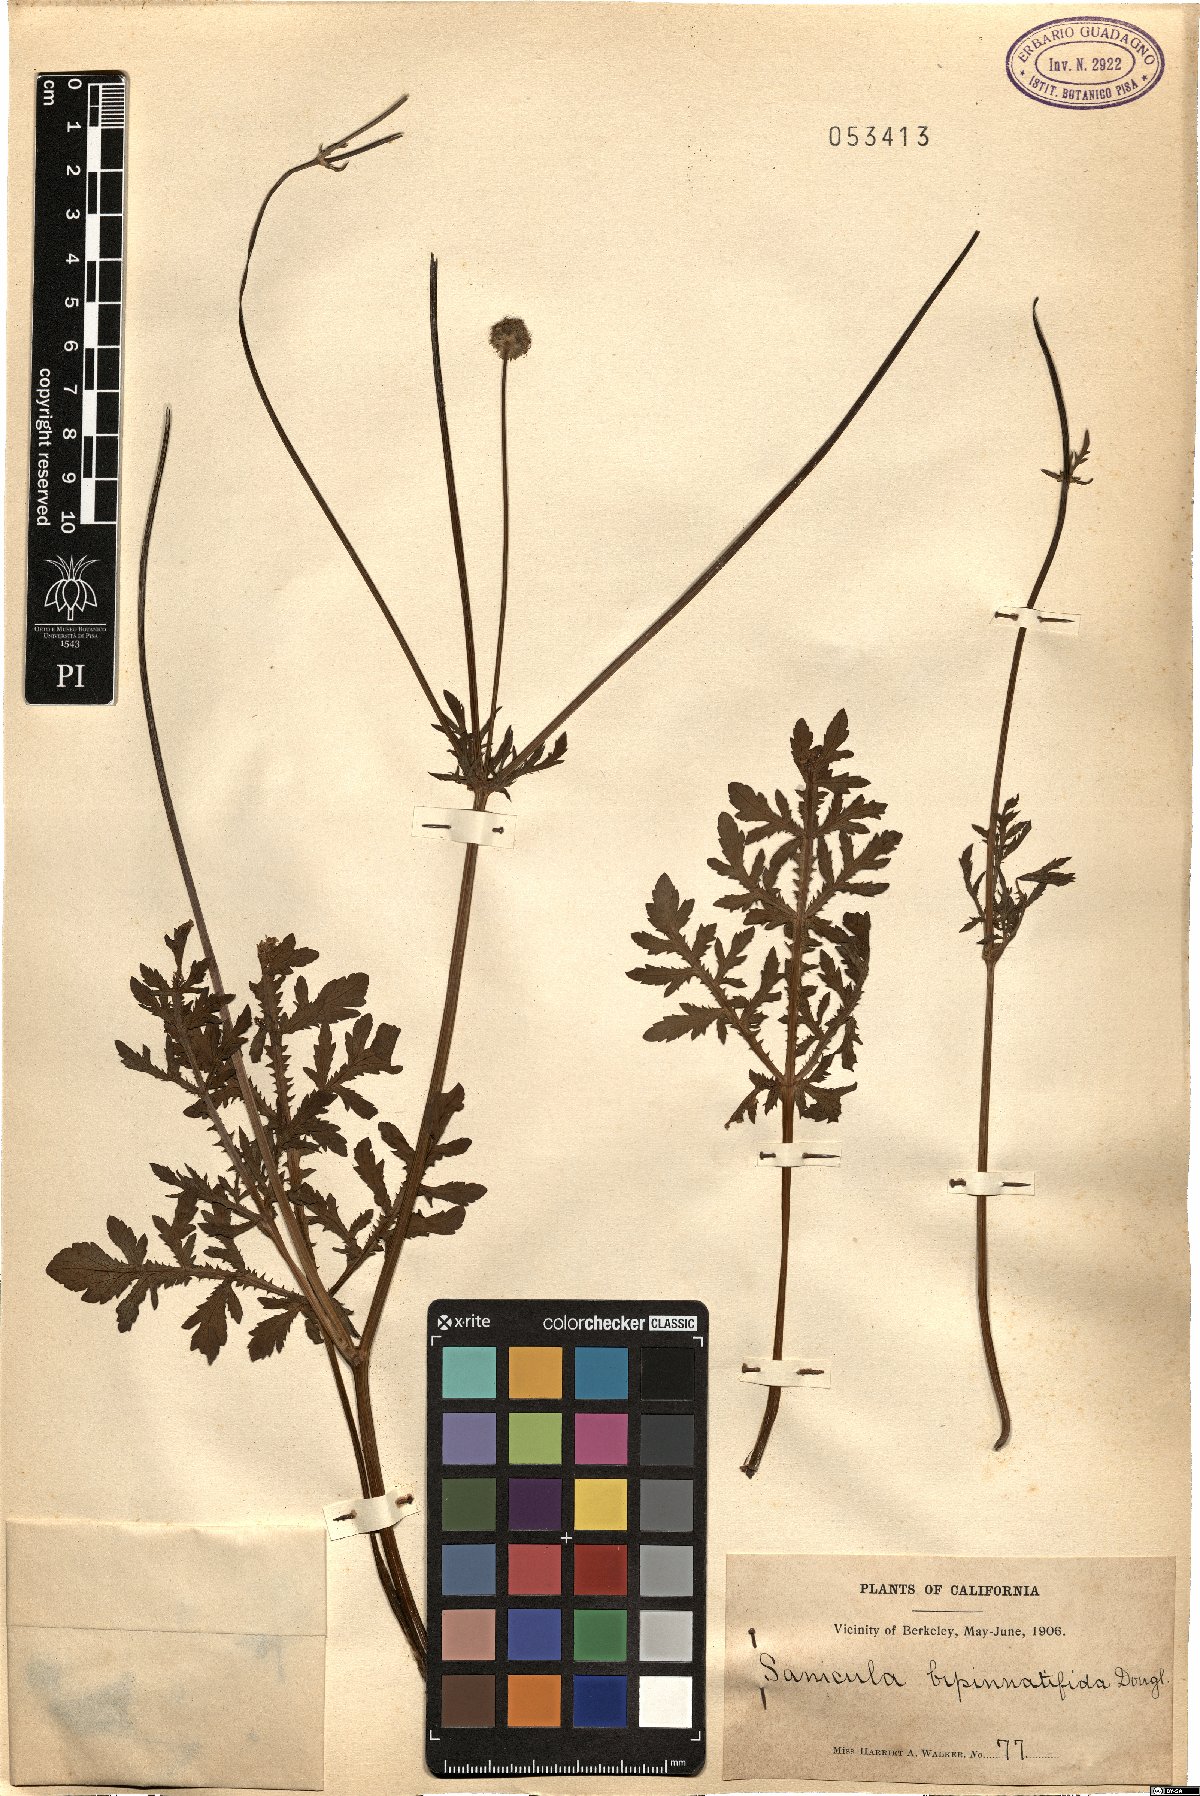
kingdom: Plantae
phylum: Tracheophyta
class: Magnoliopsida
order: Apiales
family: Apiaceae
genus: Sanicula
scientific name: Sanicula bipinnatifida
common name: Shoe-buttons
